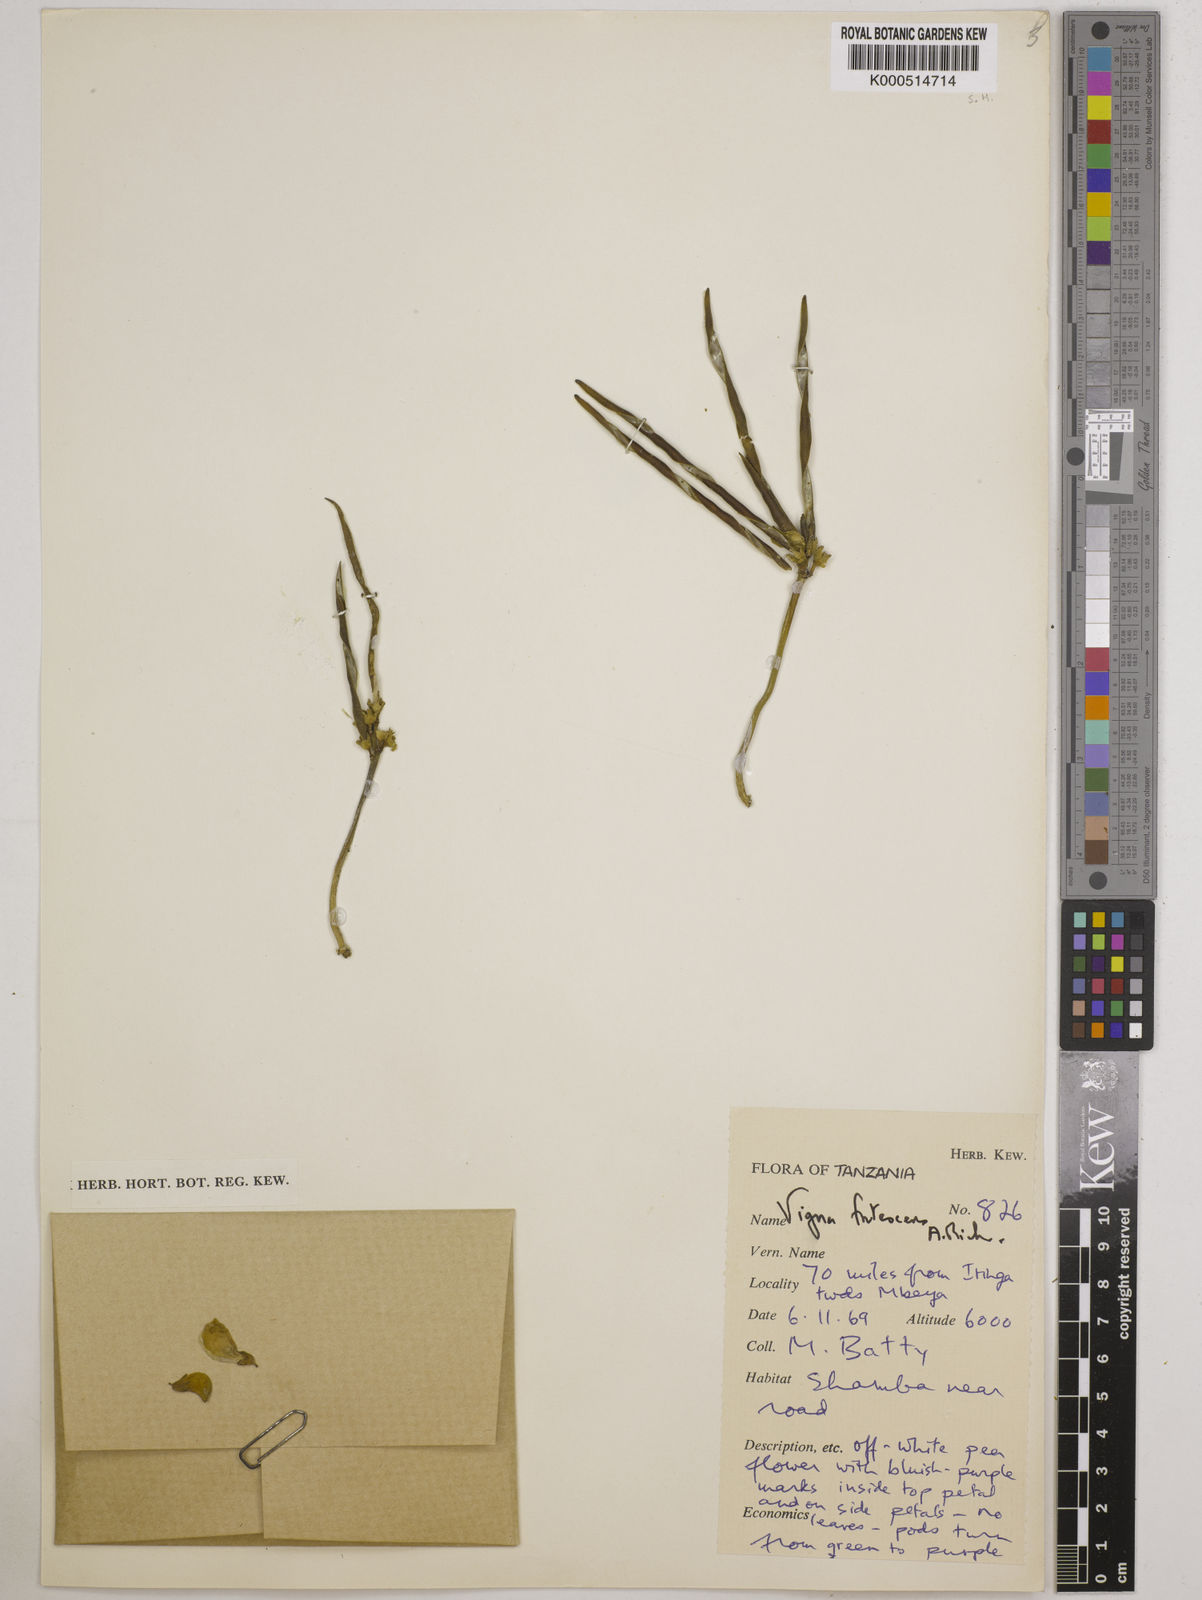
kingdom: Plantae
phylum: Tracheophyta
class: Magnoliopsida
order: Fabales
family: Fabaceae
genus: Vigna
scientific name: Vigna frutescens
